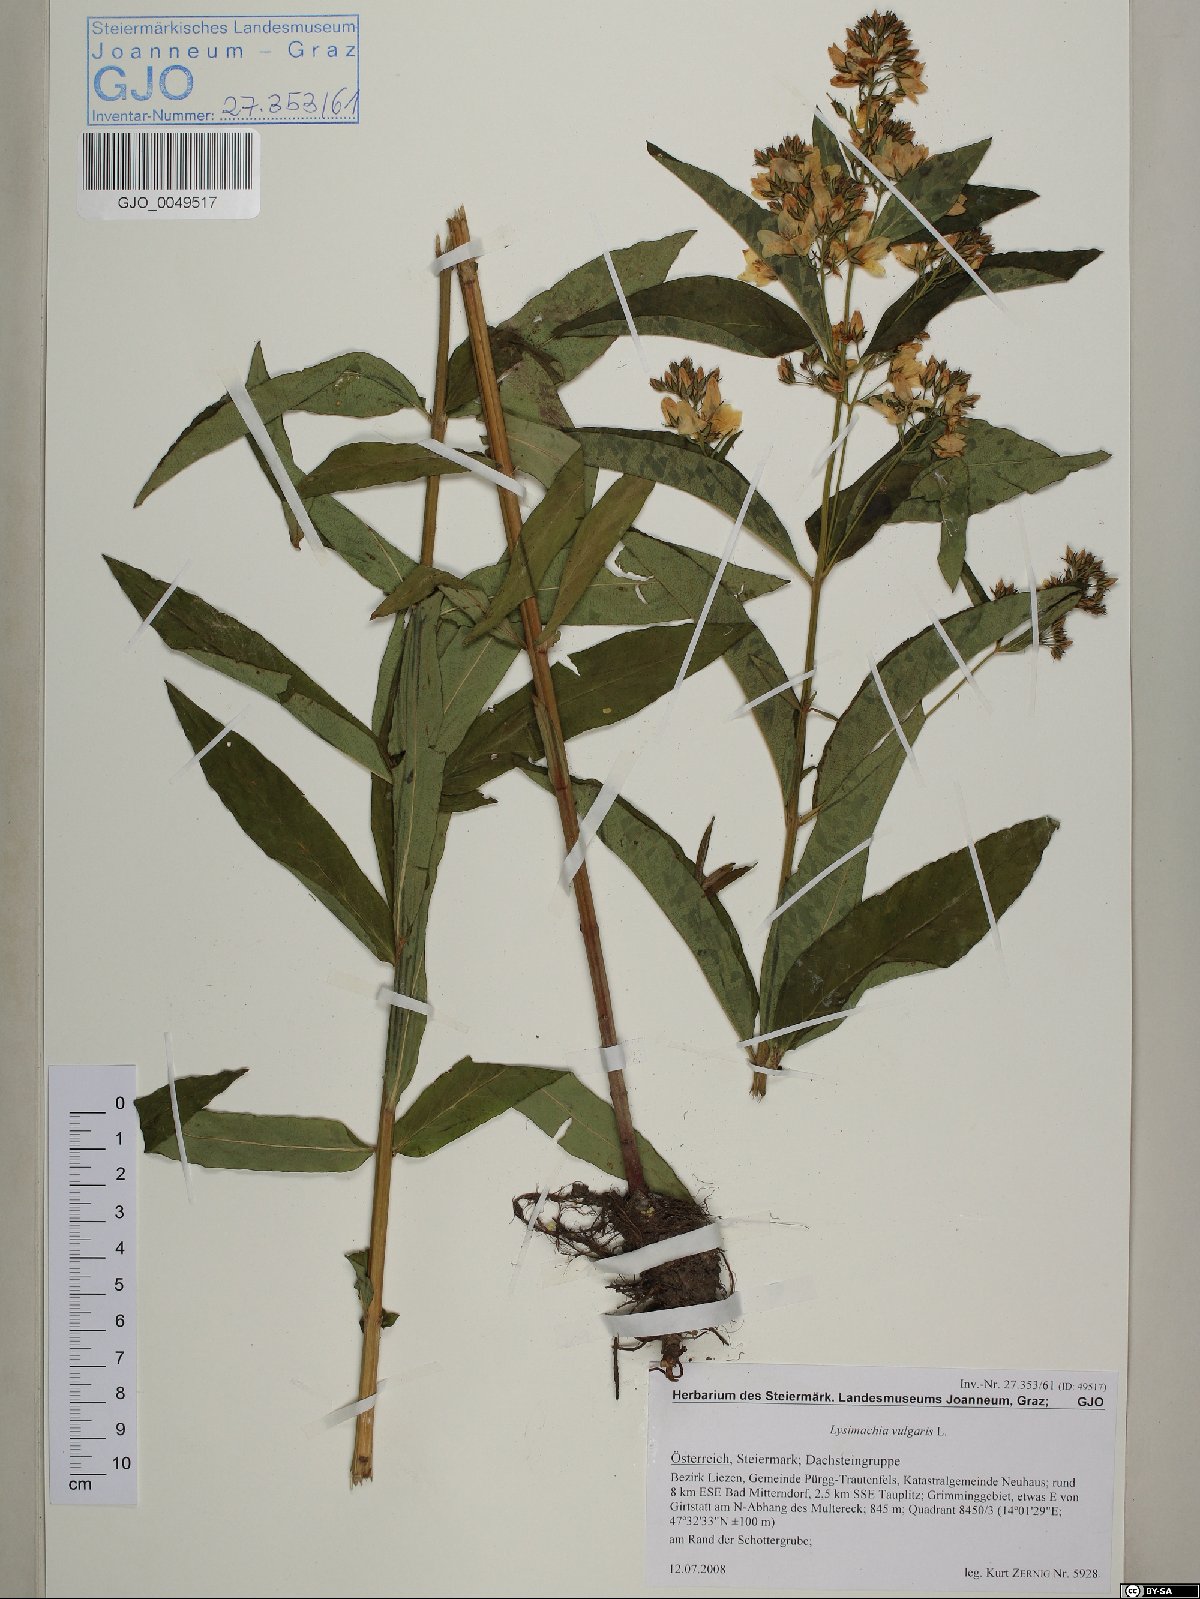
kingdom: Plantae
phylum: Tracheophyta
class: Magnoliopsida
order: Ericales
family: Primulaceae
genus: Lysimachia
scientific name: Lysimachia vulgaris
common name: Yellow loosestrife
